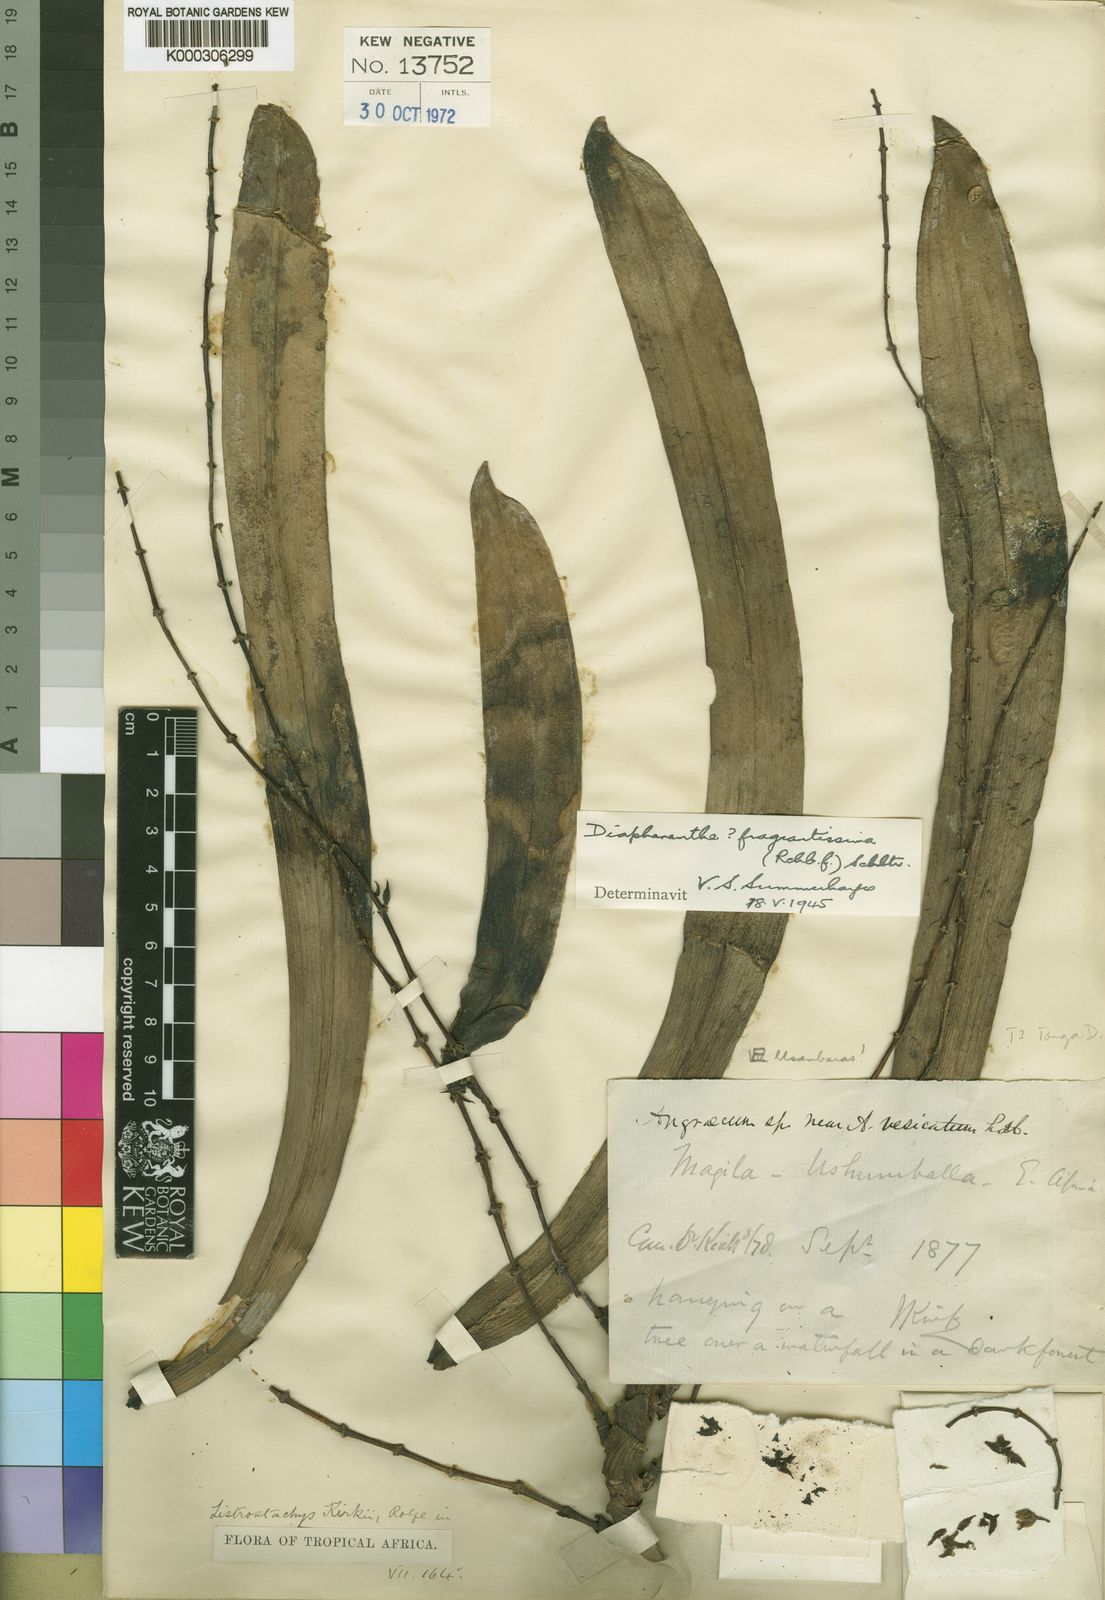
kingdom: Plantae
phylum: Tracheophyta
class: Liliopsida
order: Asparagales
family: Orchidaceae
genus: Diaphananthe
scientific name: Diaphananthe fragrantissima
